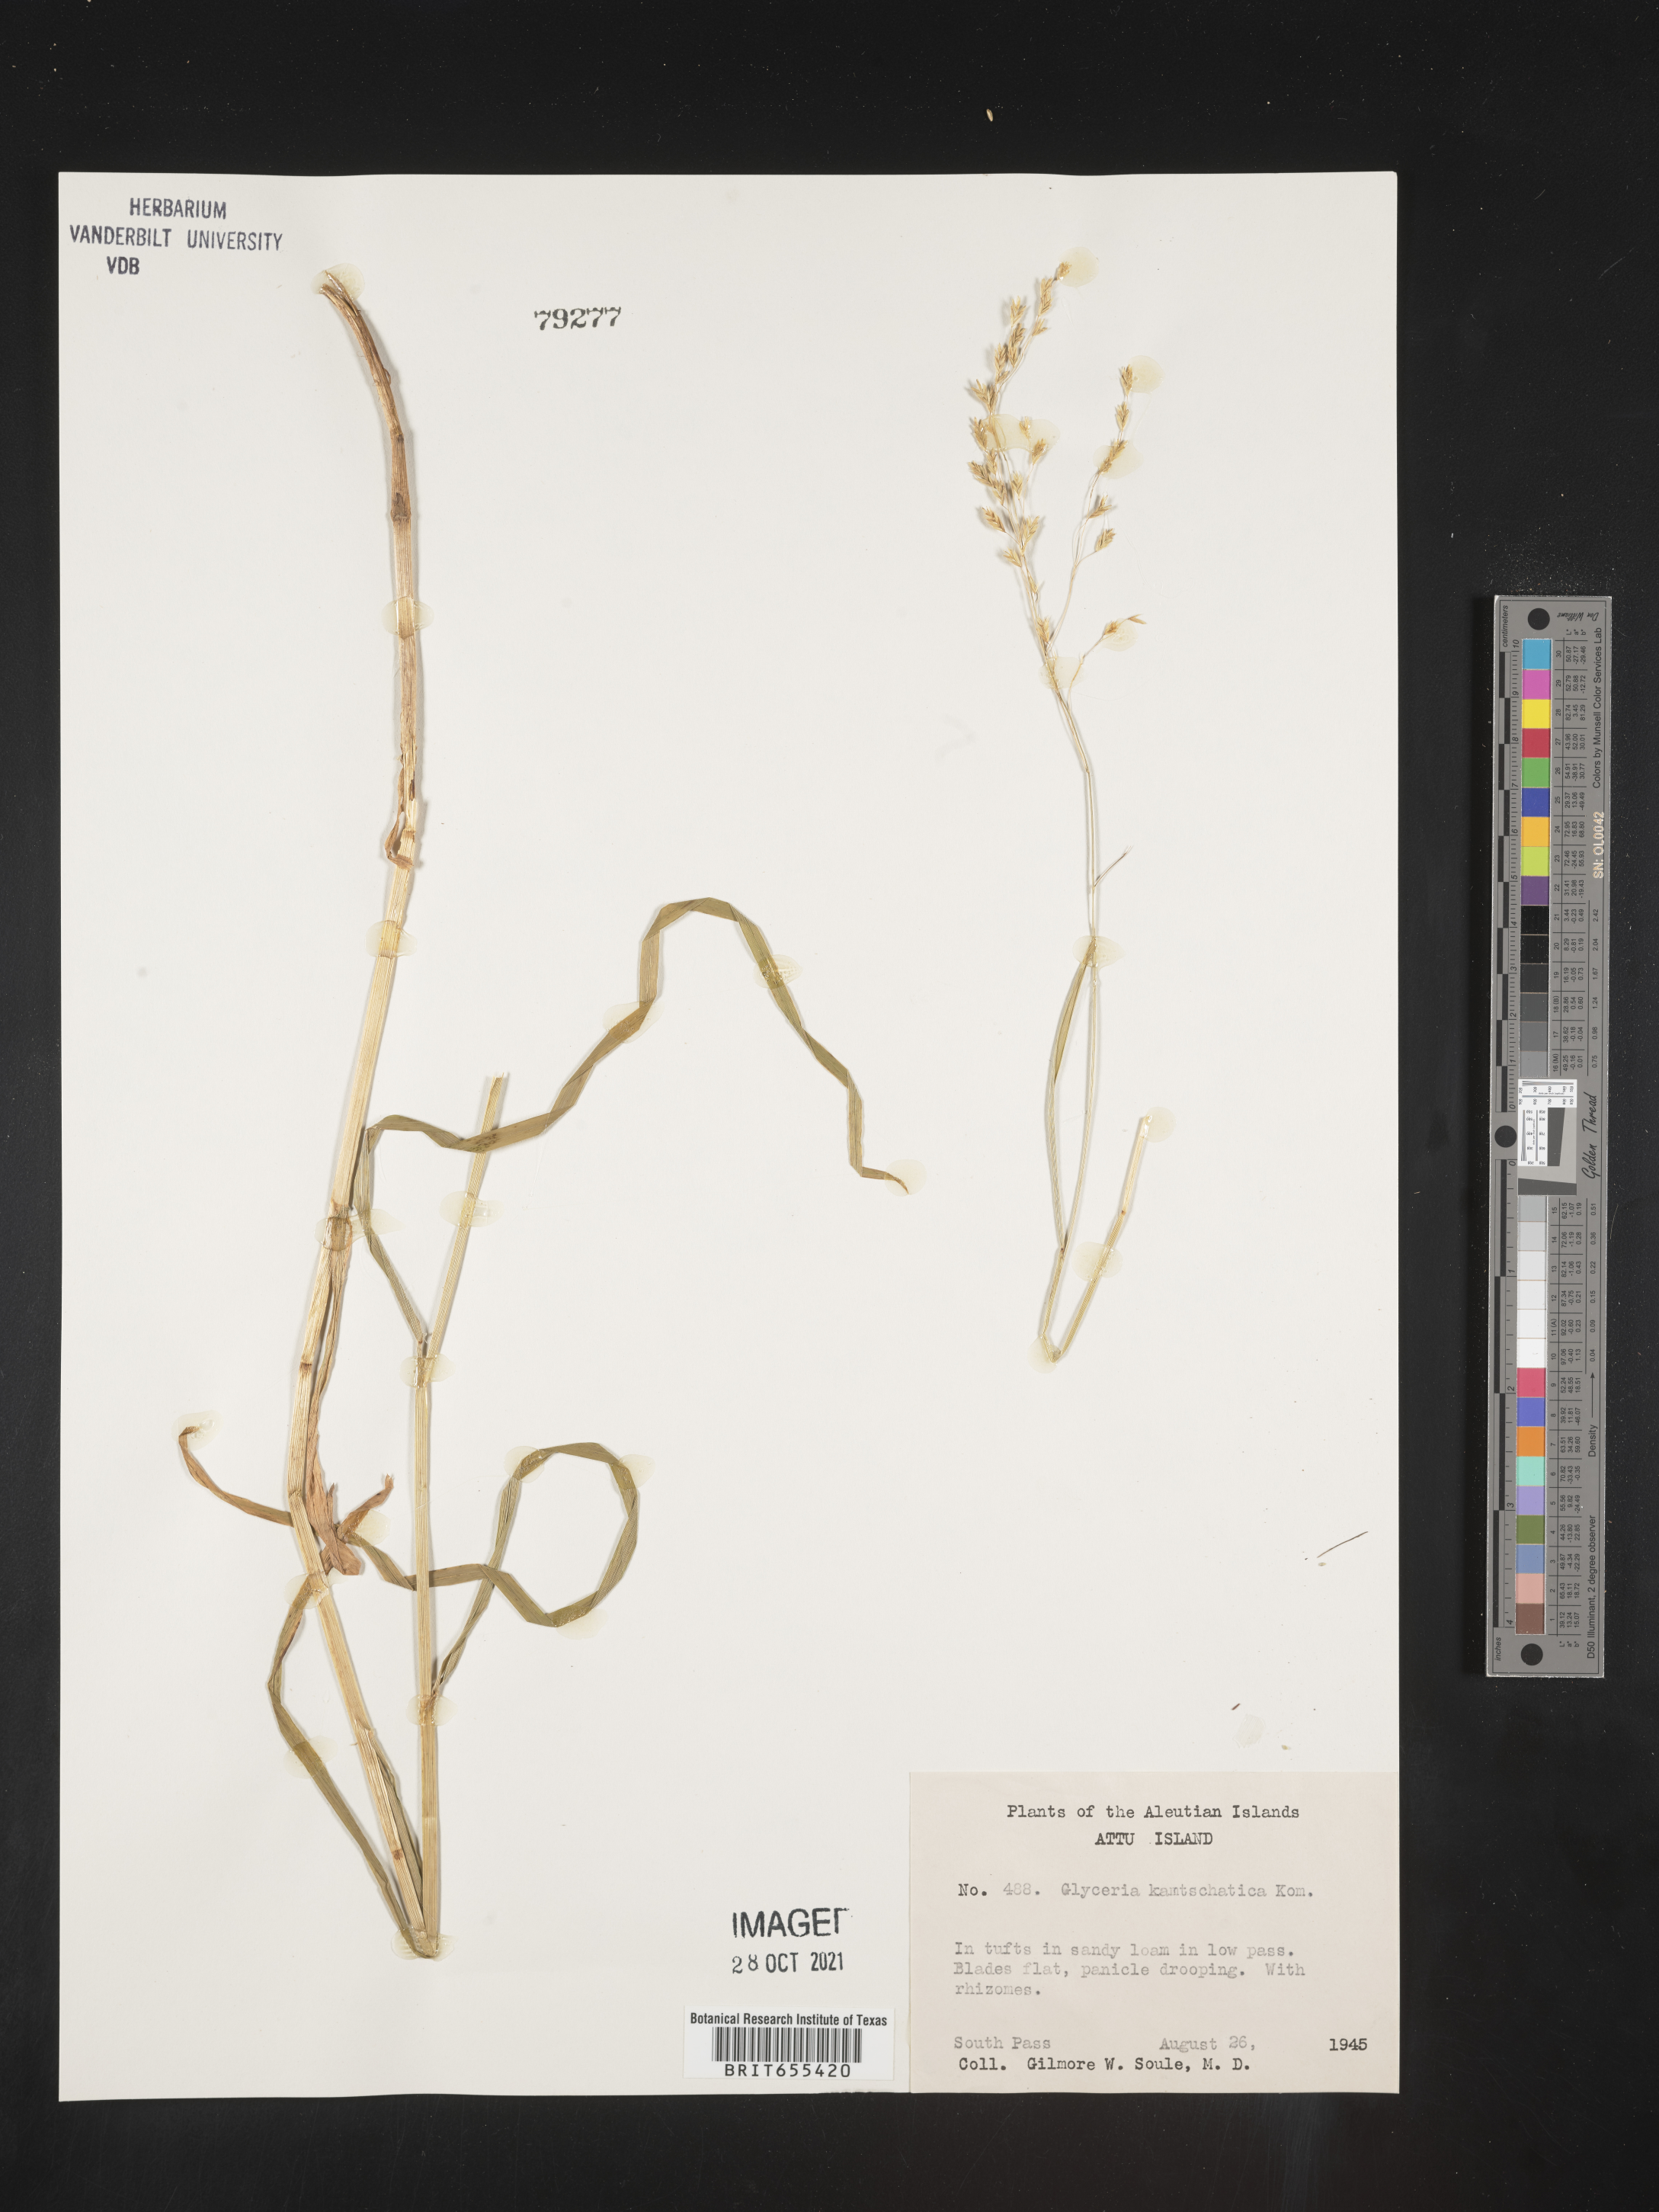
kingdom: Plantae
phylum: Tracheophyta
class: Liliopsida
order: Poales
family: Poaceae
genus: Glyceria
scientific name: Glyceria
